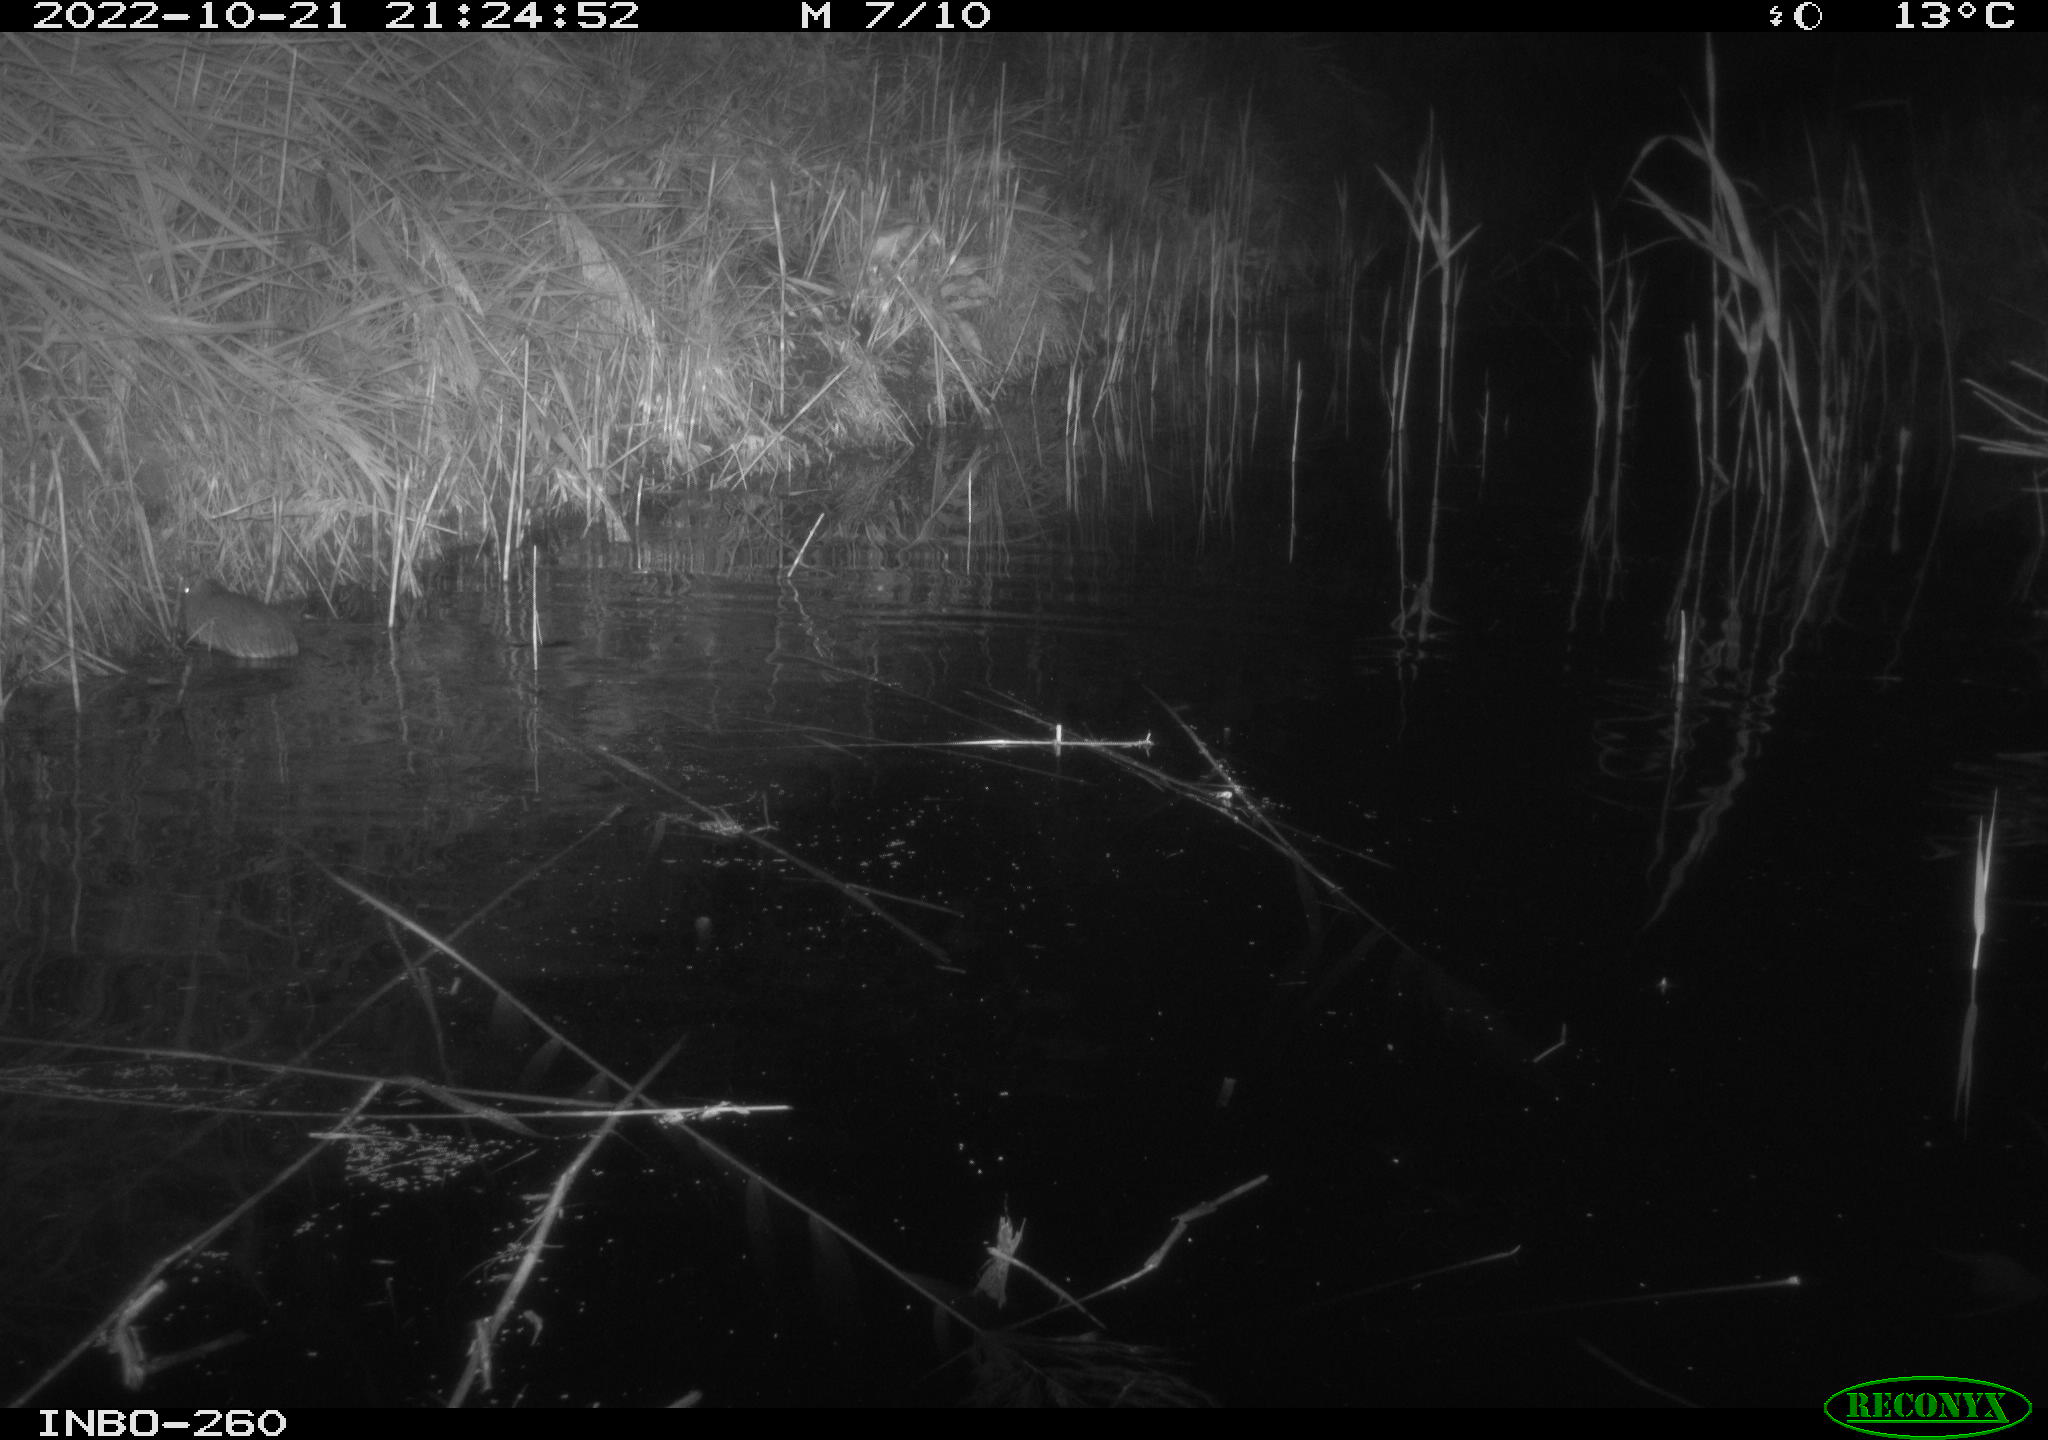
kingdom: Animalia
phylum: Chordata
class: Mammalia
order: Rodentia
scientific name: Rodentia
